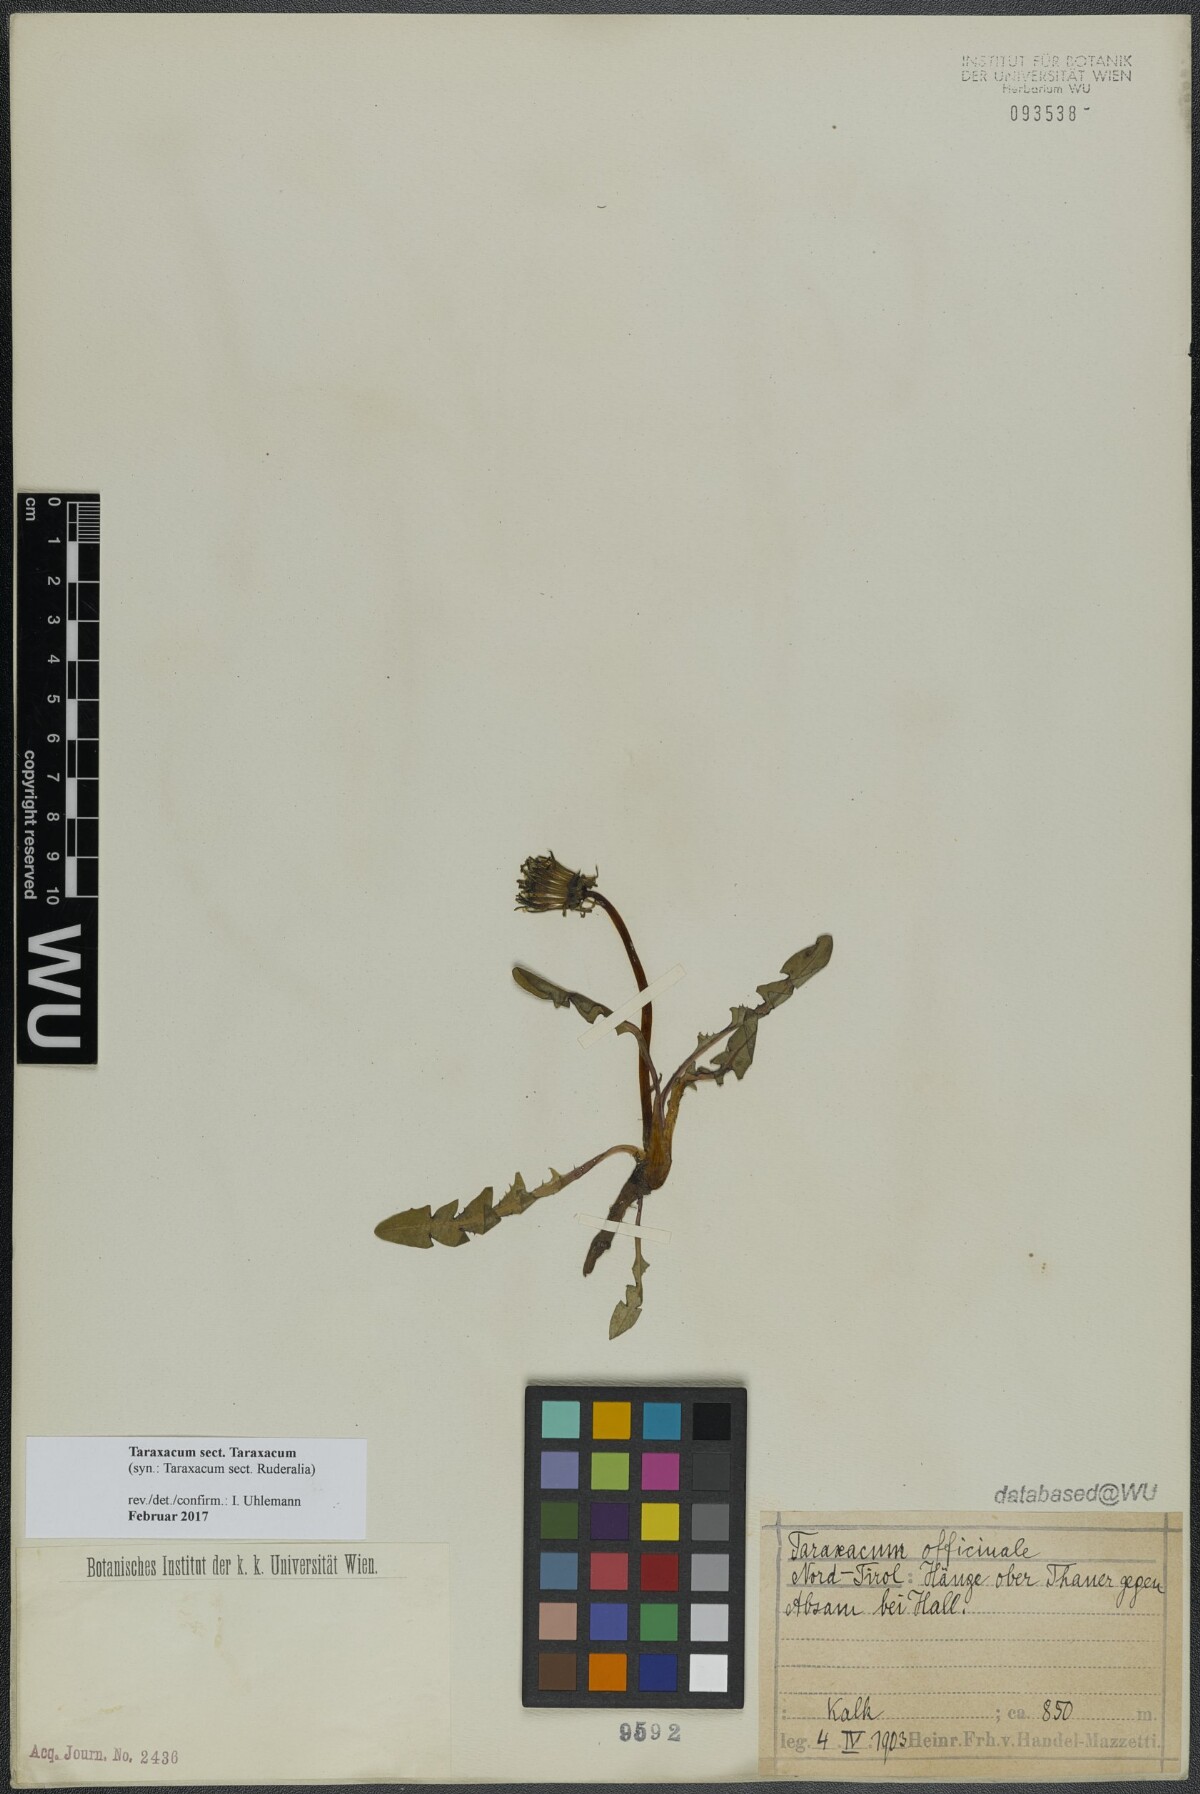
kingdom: Plantae
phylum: Tracheophyta
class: Magnoliopsida
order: Asterales
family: Asteraceae
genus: Taraxacum
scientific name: Taraxacum
